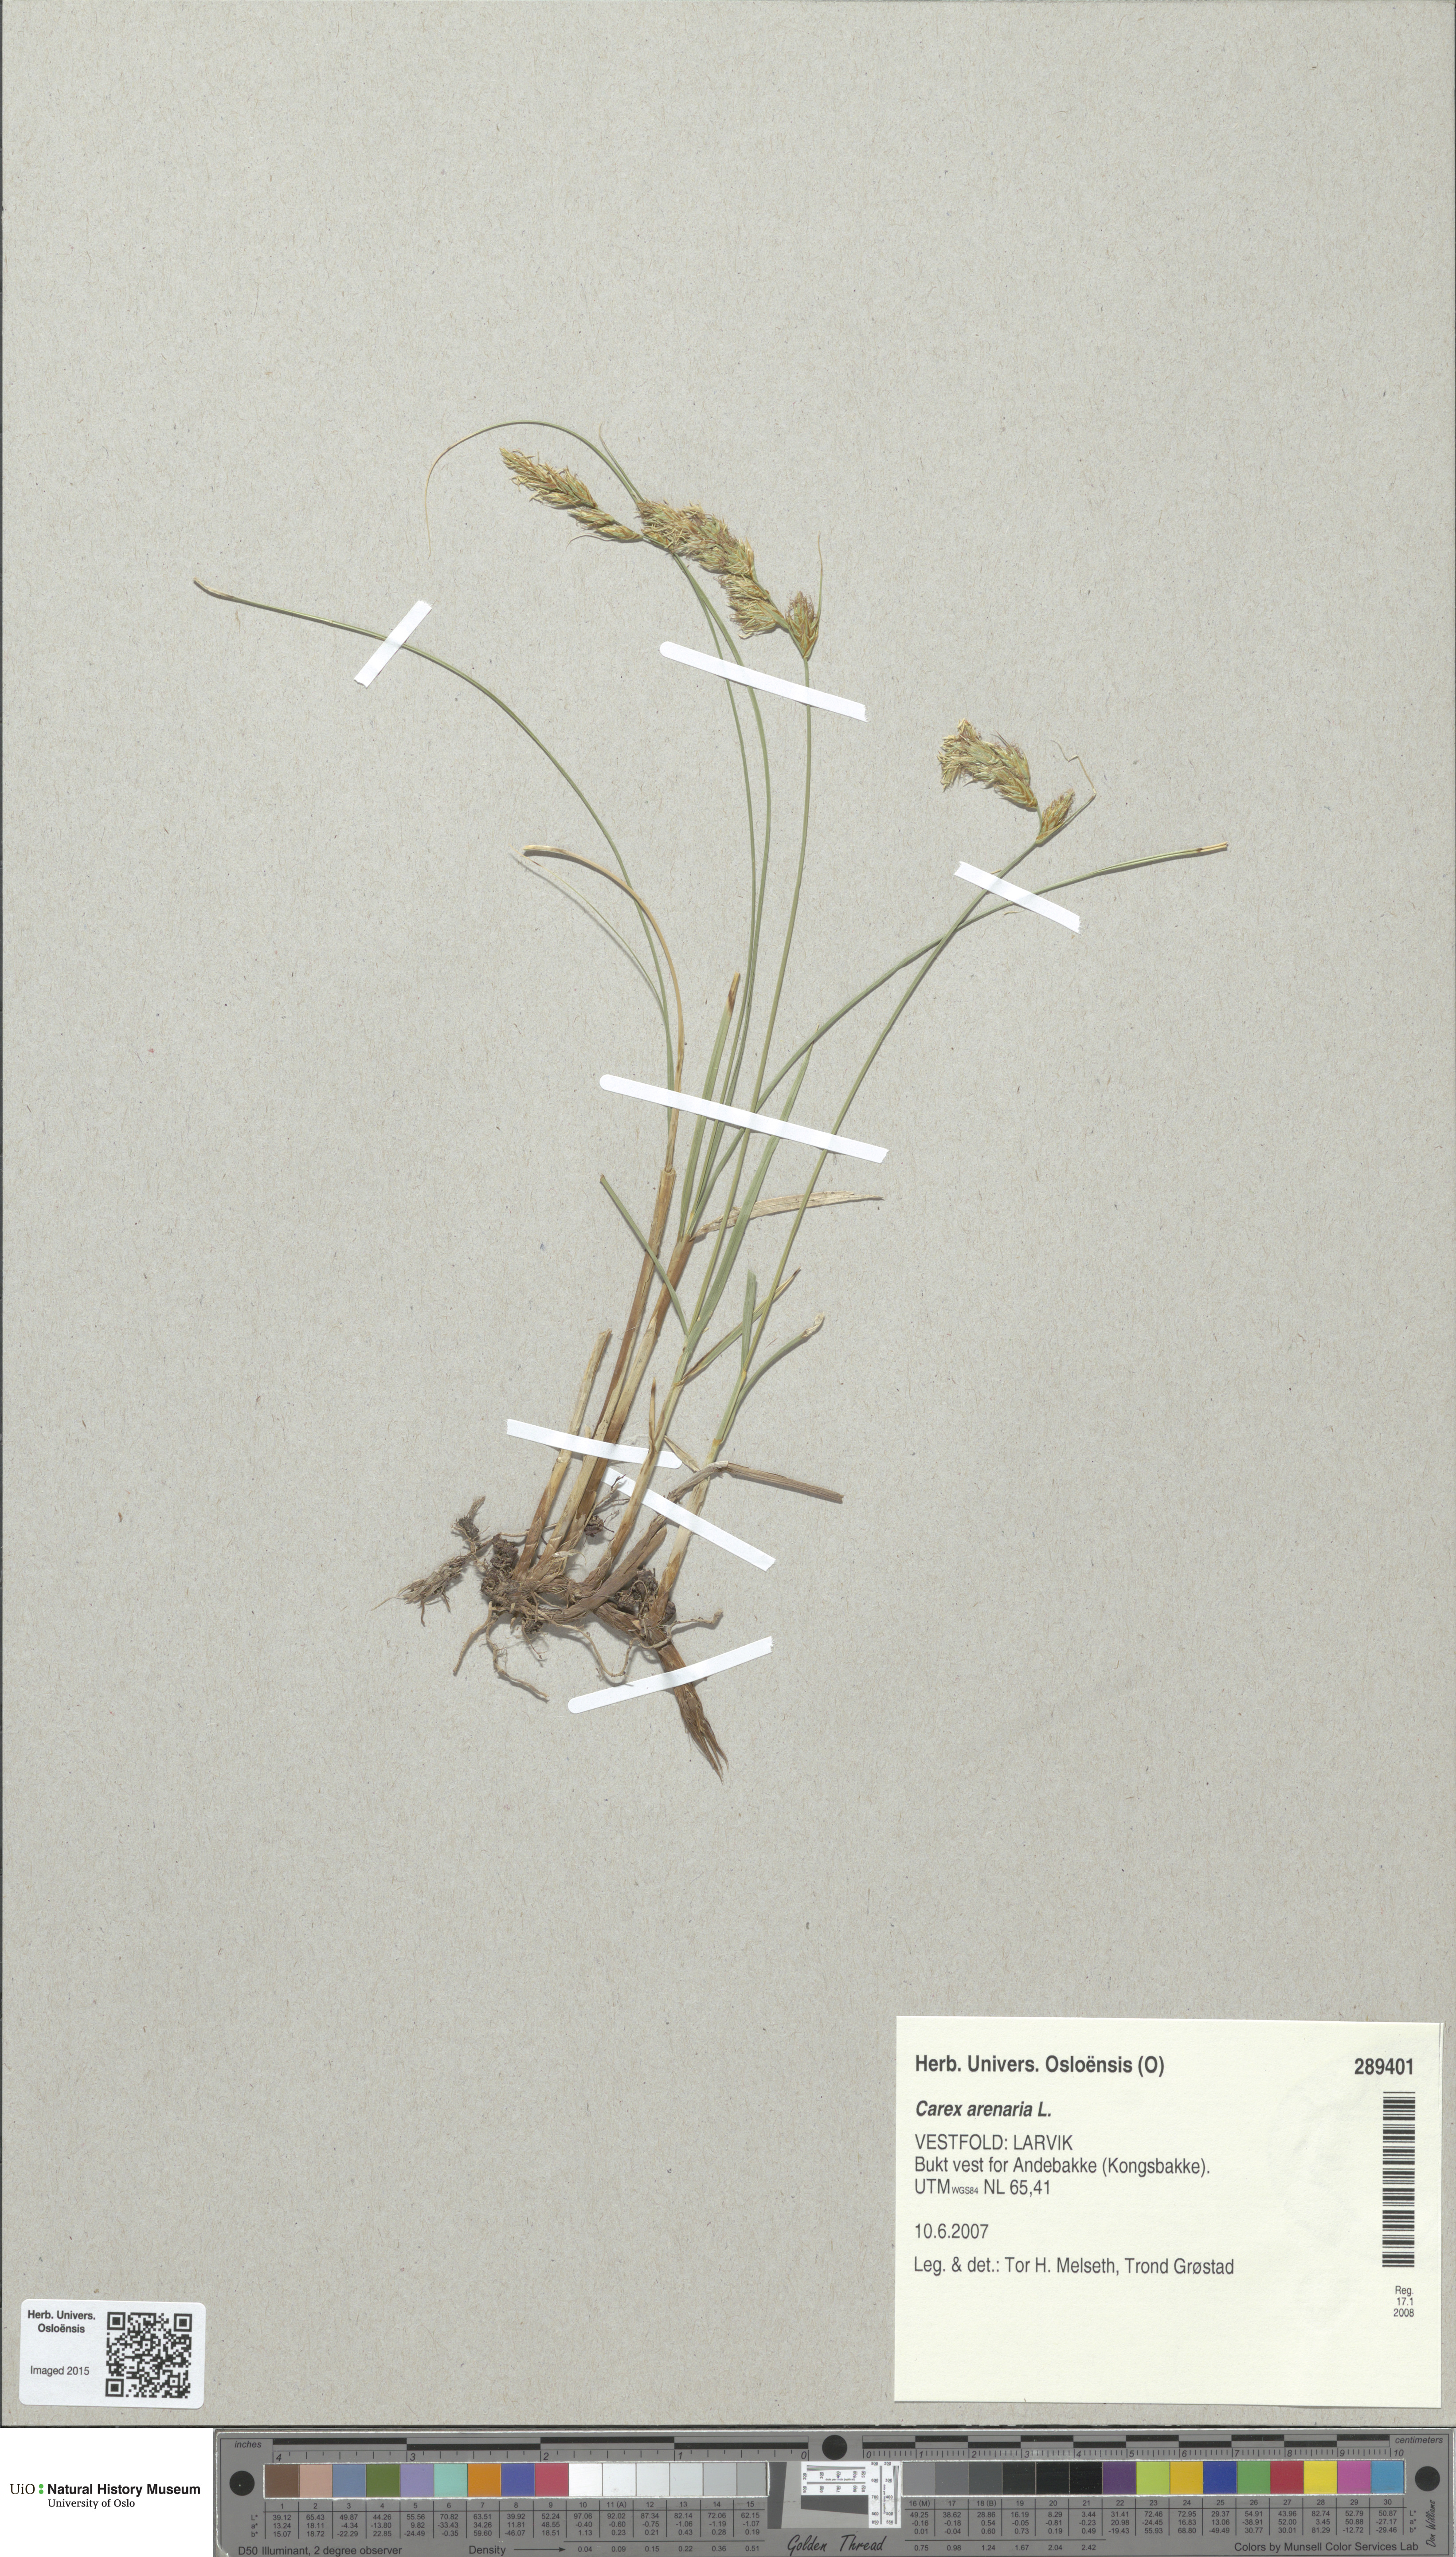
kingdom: Plantae
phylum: Tracheophyta
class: Liliopsida
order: Poales
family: Cyperaceae
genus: Carex
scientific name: Carex arenaria
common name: Sand sedge
